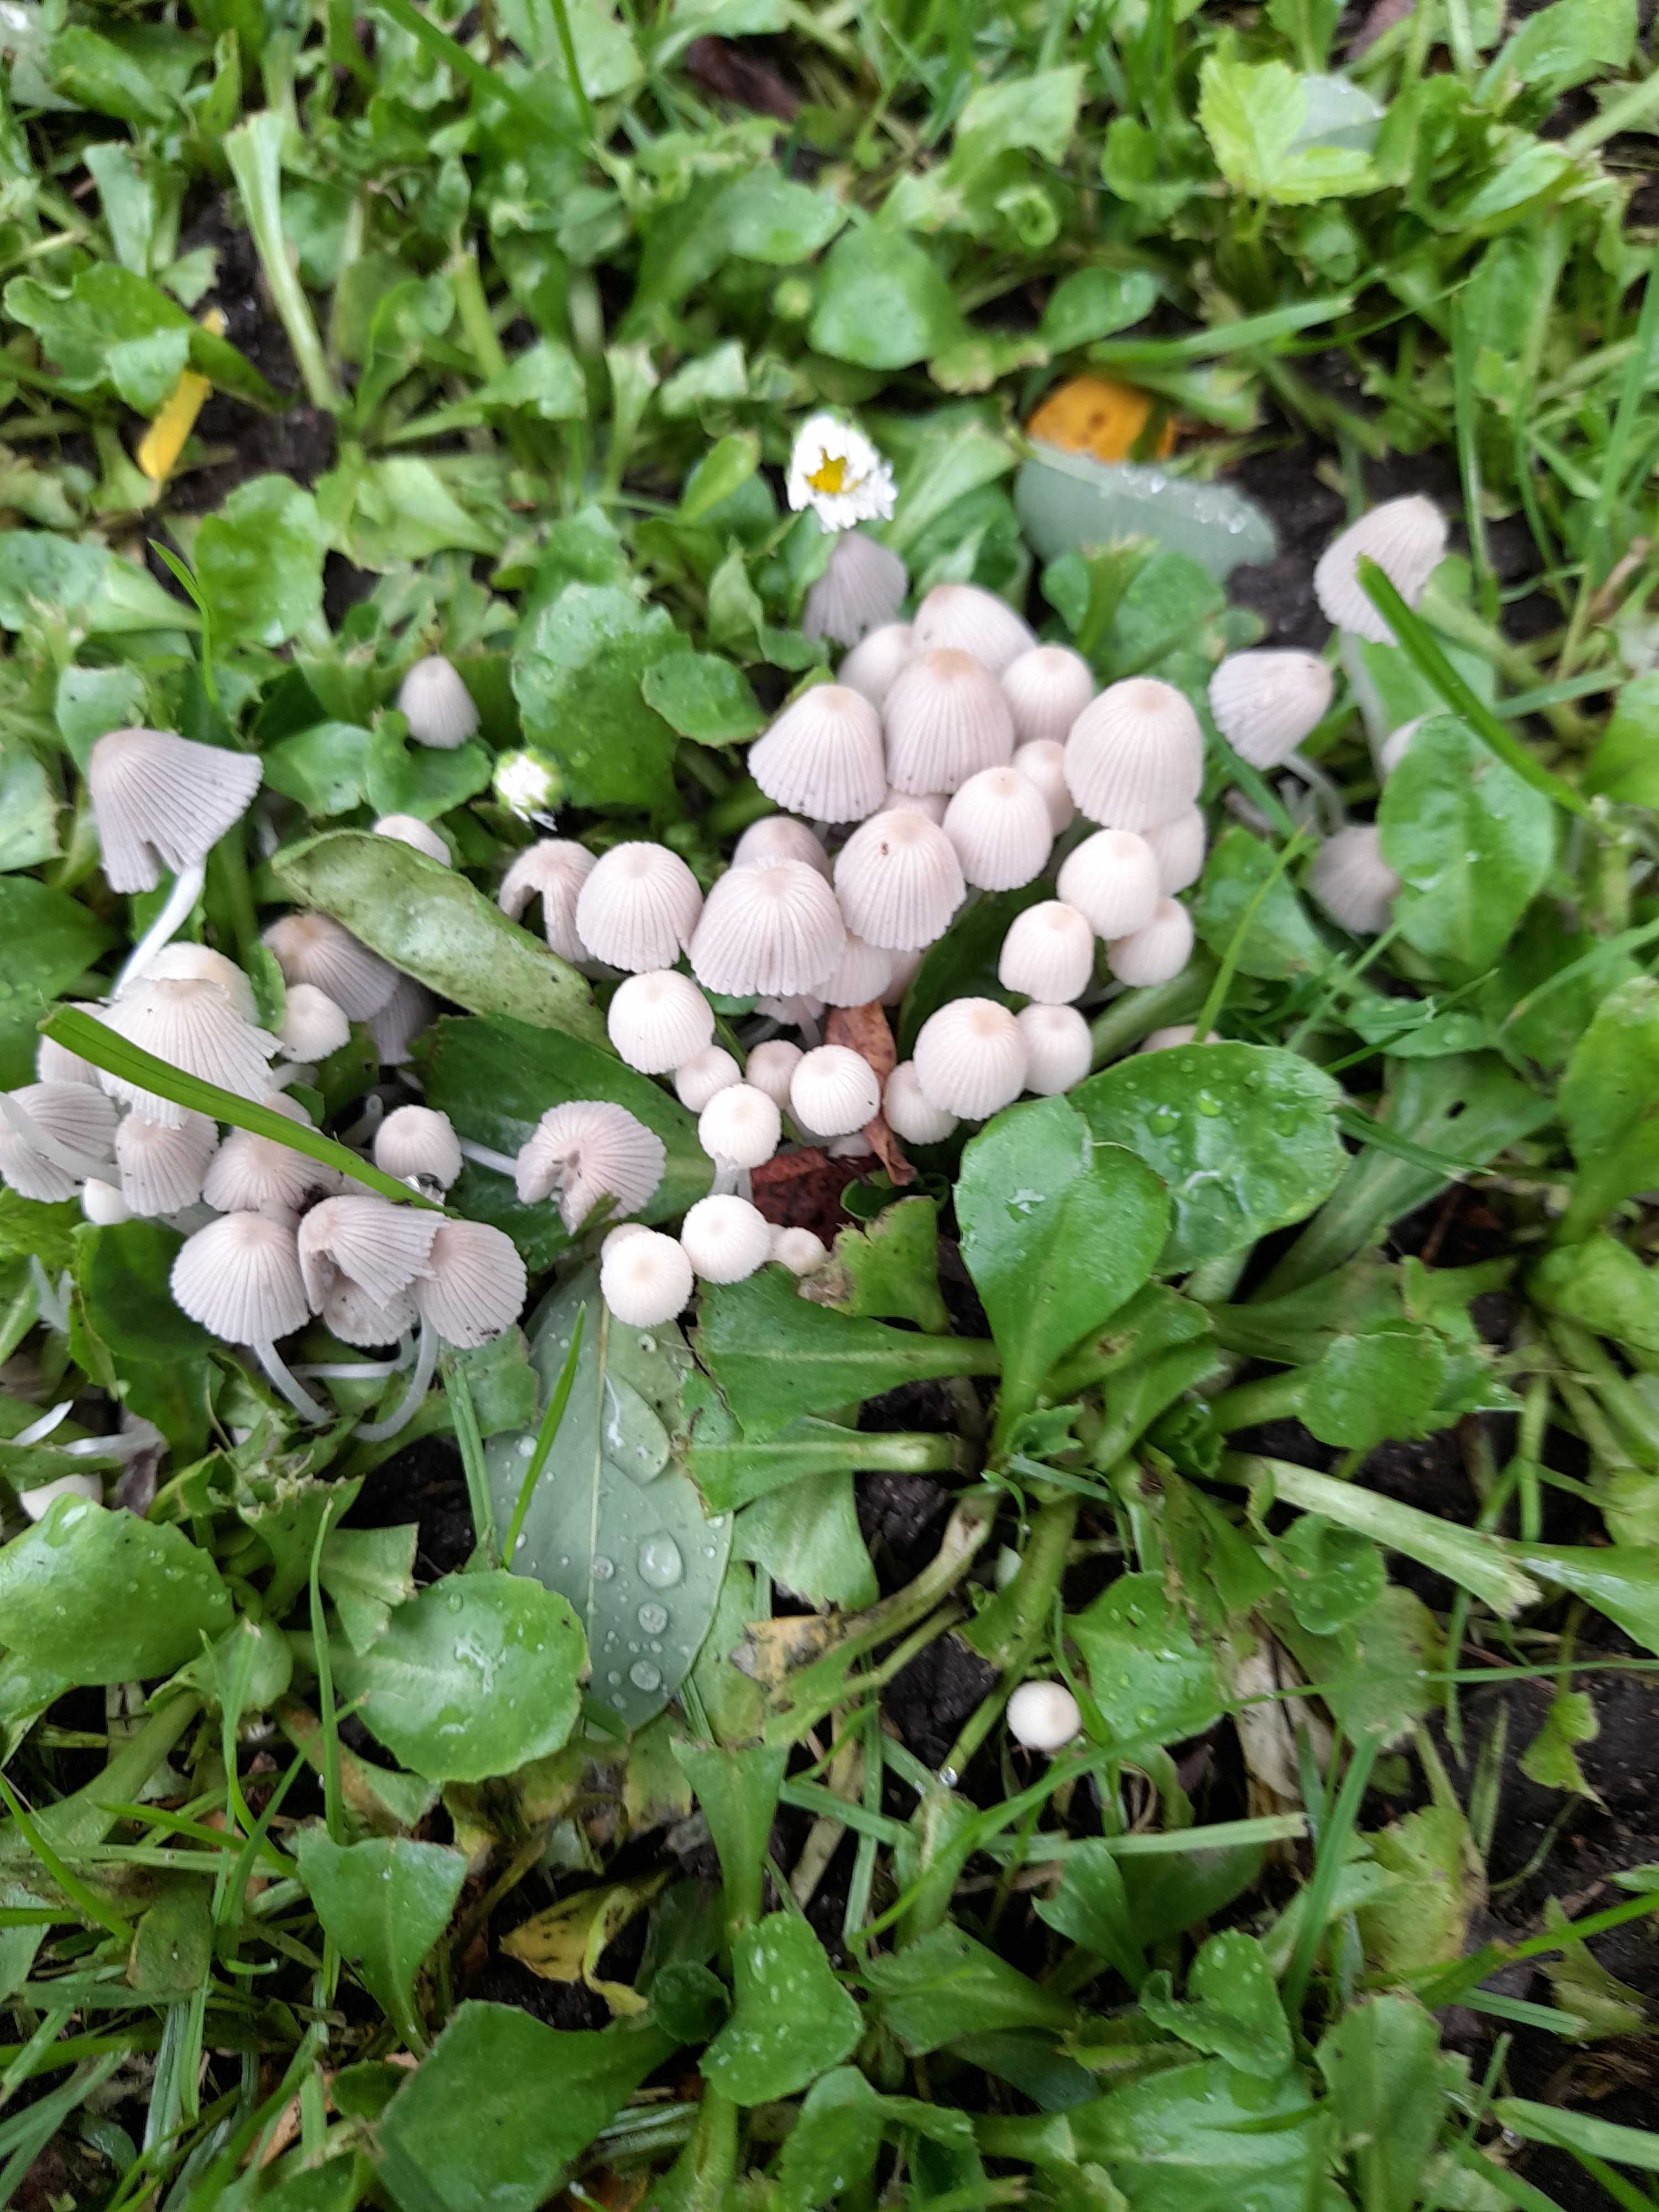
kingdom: Fungi
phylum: Basidiomycota
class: Agaricomycetes
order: Agaricales
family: Psathyrellaceae
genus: Coprinellus
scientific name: Coprinellus disseminatus
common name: bredsået blækhat
